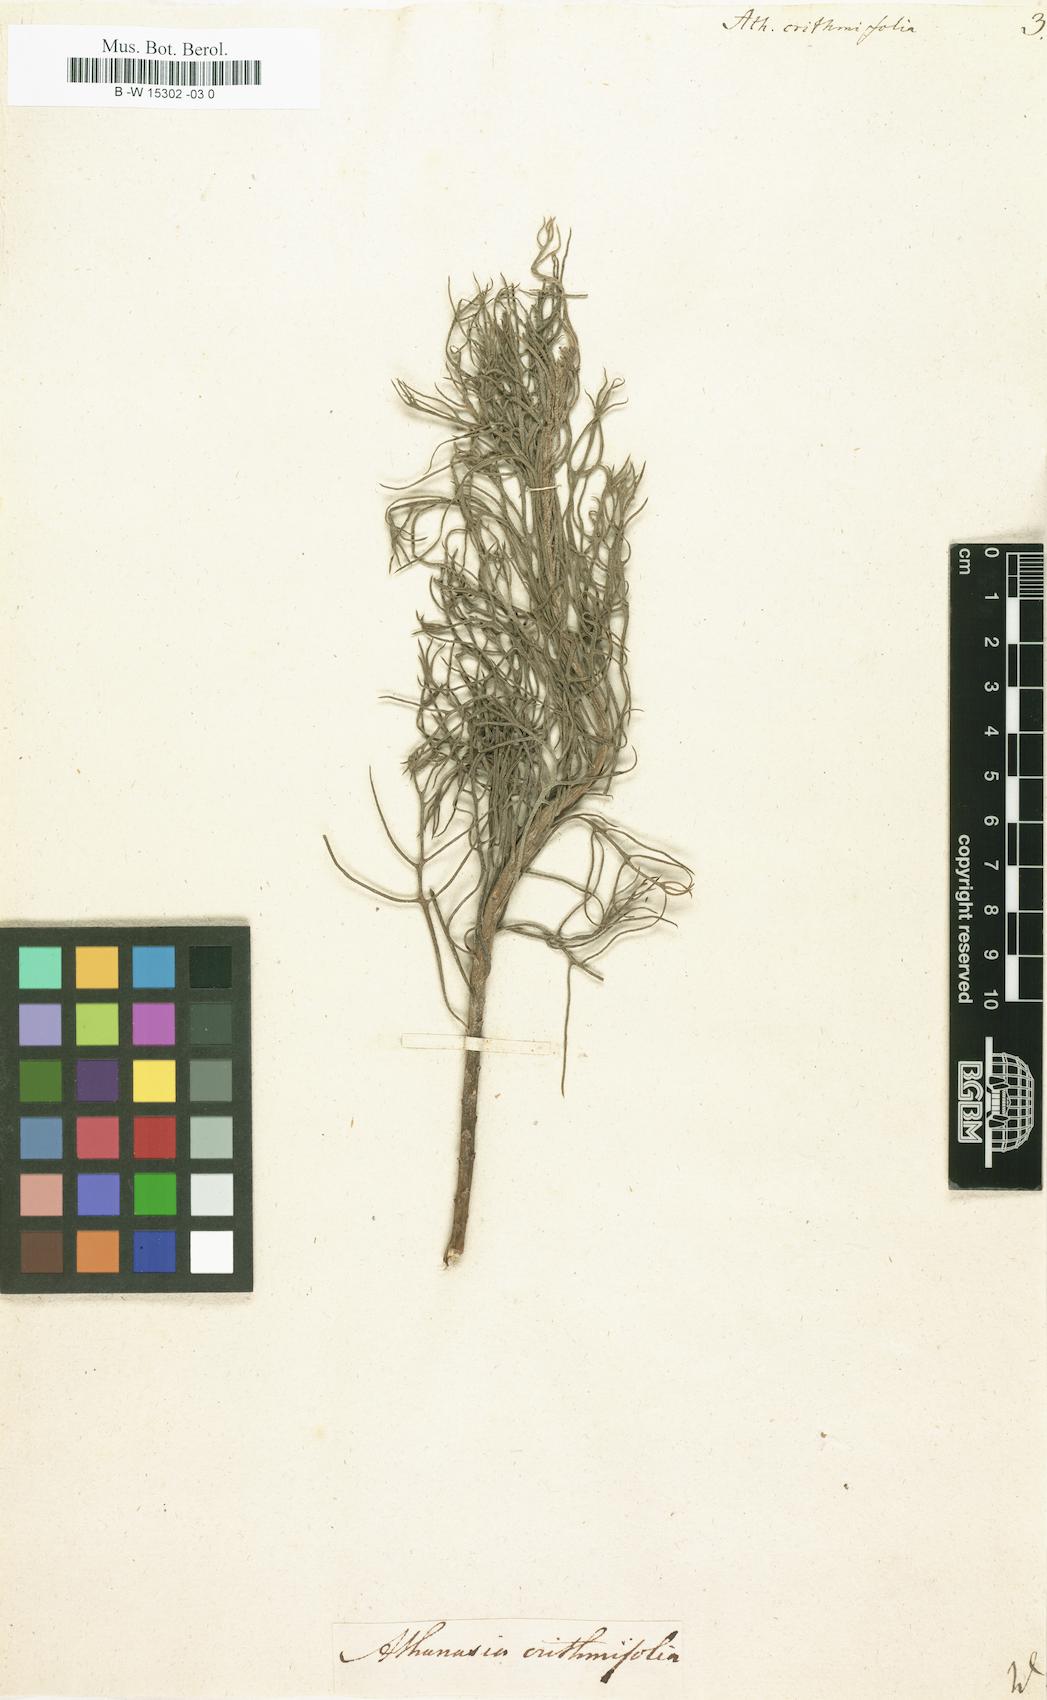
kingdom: Plantae
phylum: Tracheophyta
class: Magnoliopsida
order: Asterales
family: Asteraceae
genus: Athanasia
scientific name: Athanasia crithmifolia
